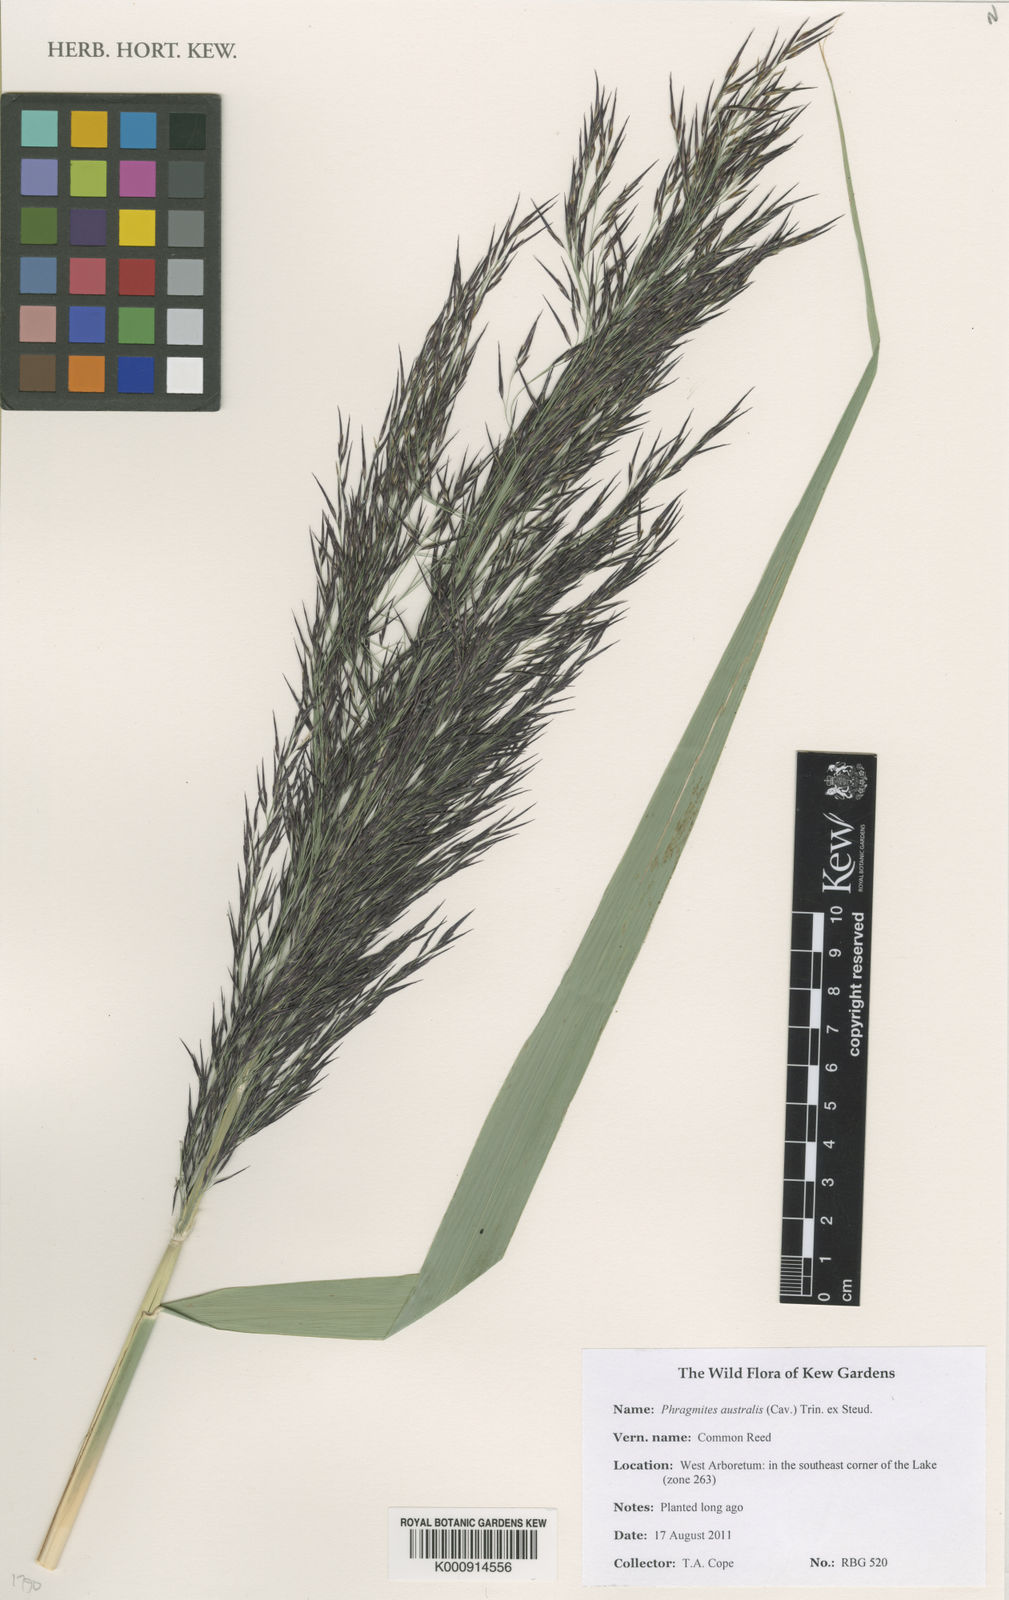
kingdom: Plantae
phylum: Tracheophyta
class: Liliopsida
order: Poales
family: Poaceae
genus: Phragmites
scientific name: Phragmites australis
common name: Common reed
